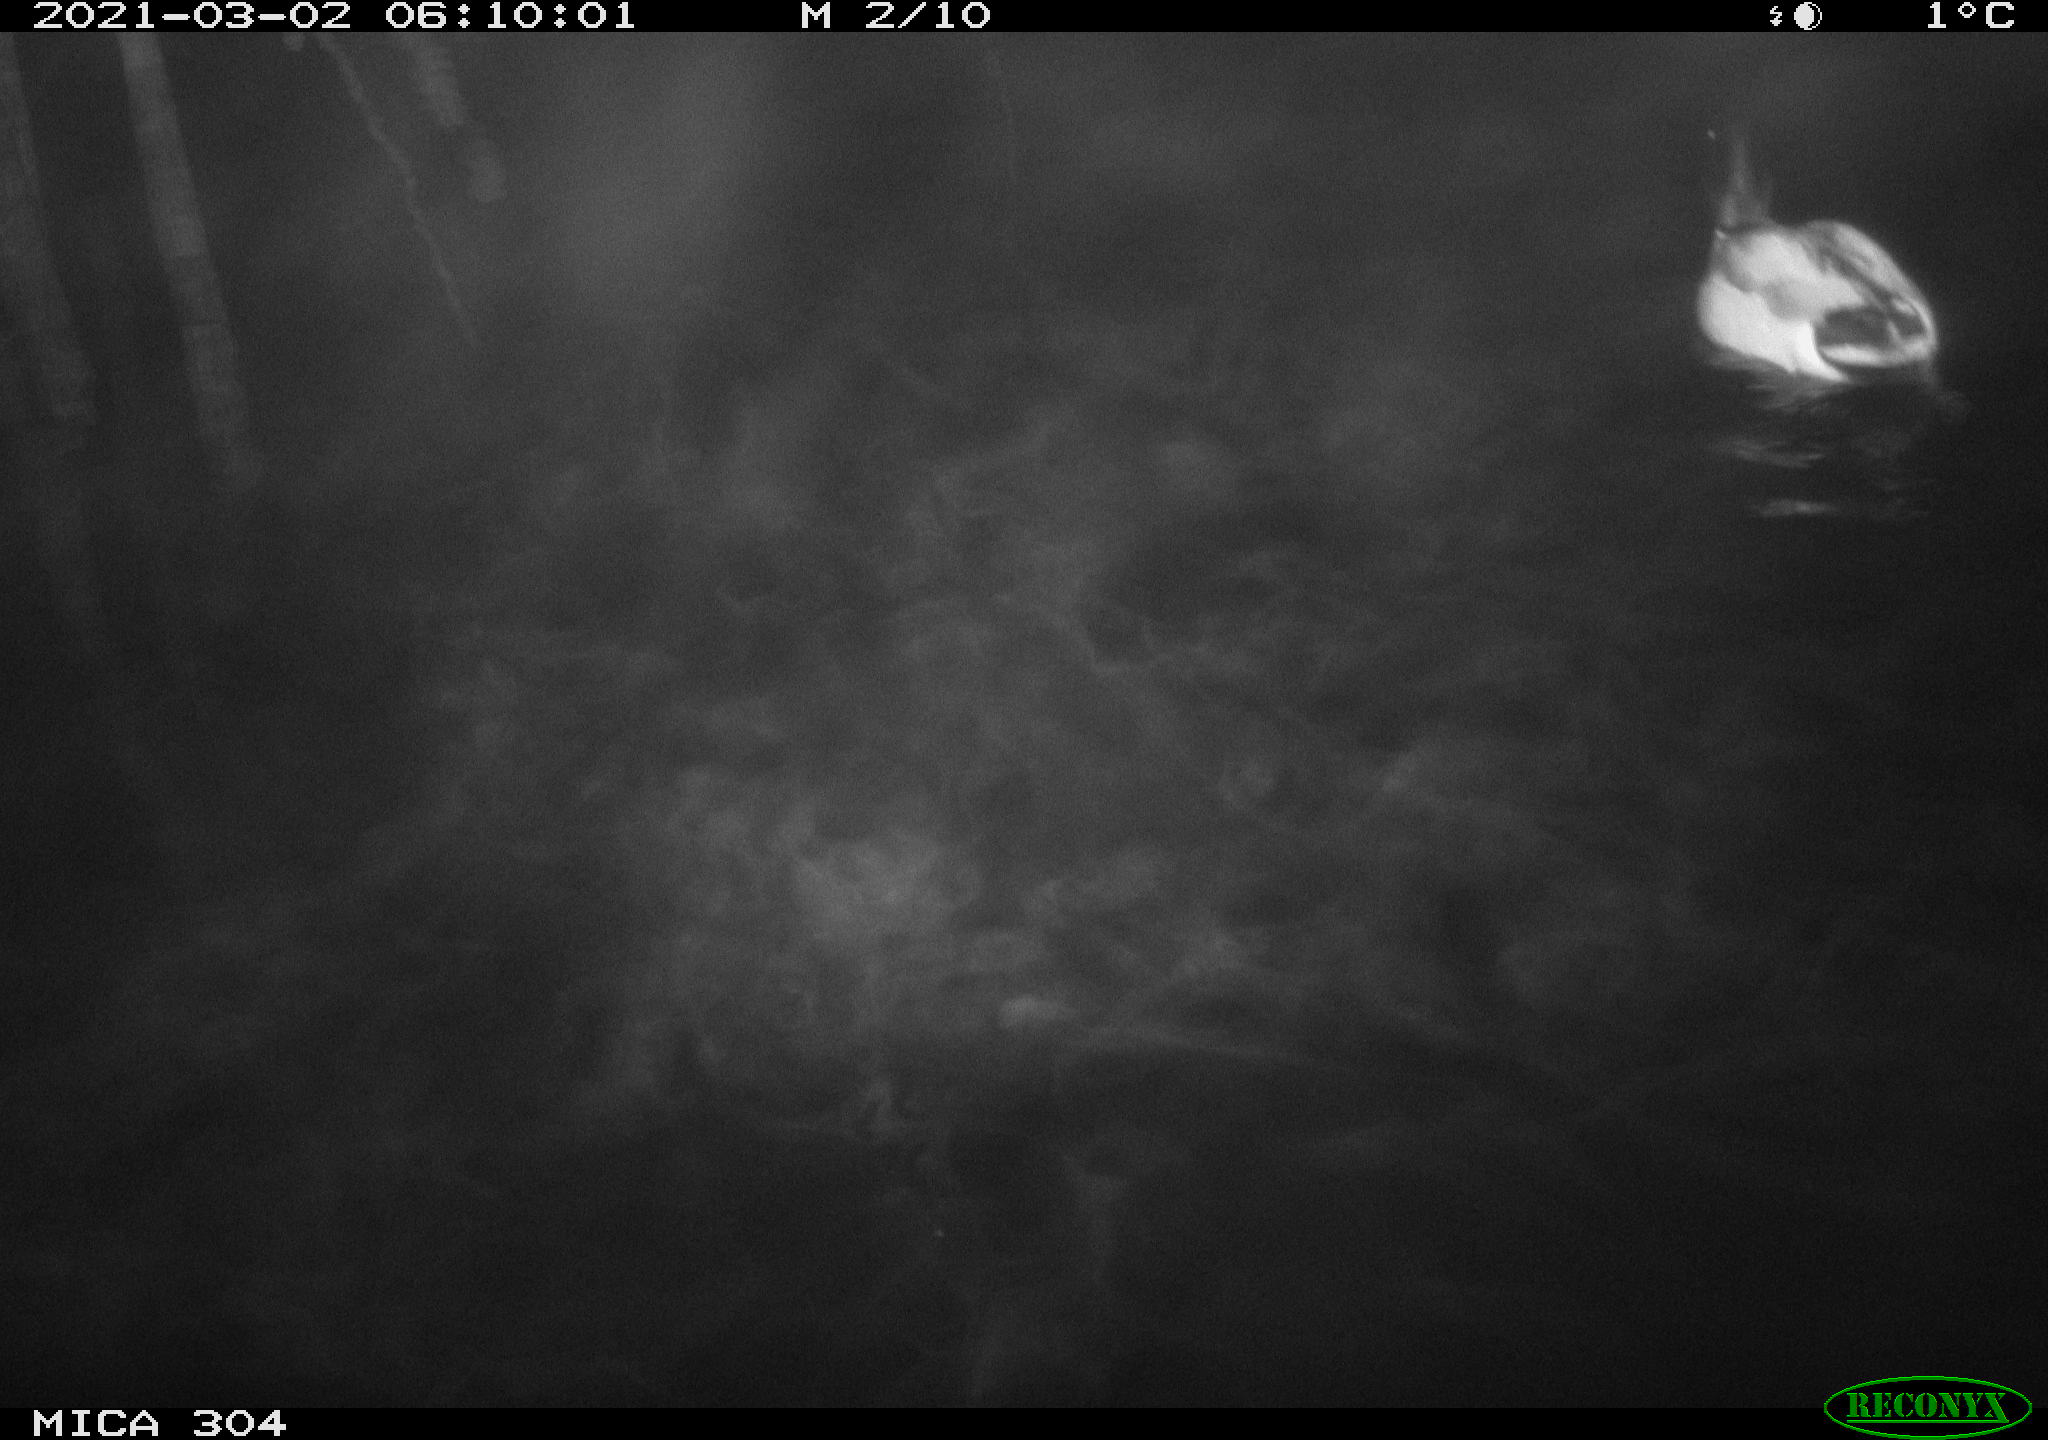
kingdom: Animalia
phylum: Chordata
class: Mammalia
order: Rodentia
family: Cricetidae
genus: Ondatra
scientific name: Ondatra zibethicus
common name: Muskrat
